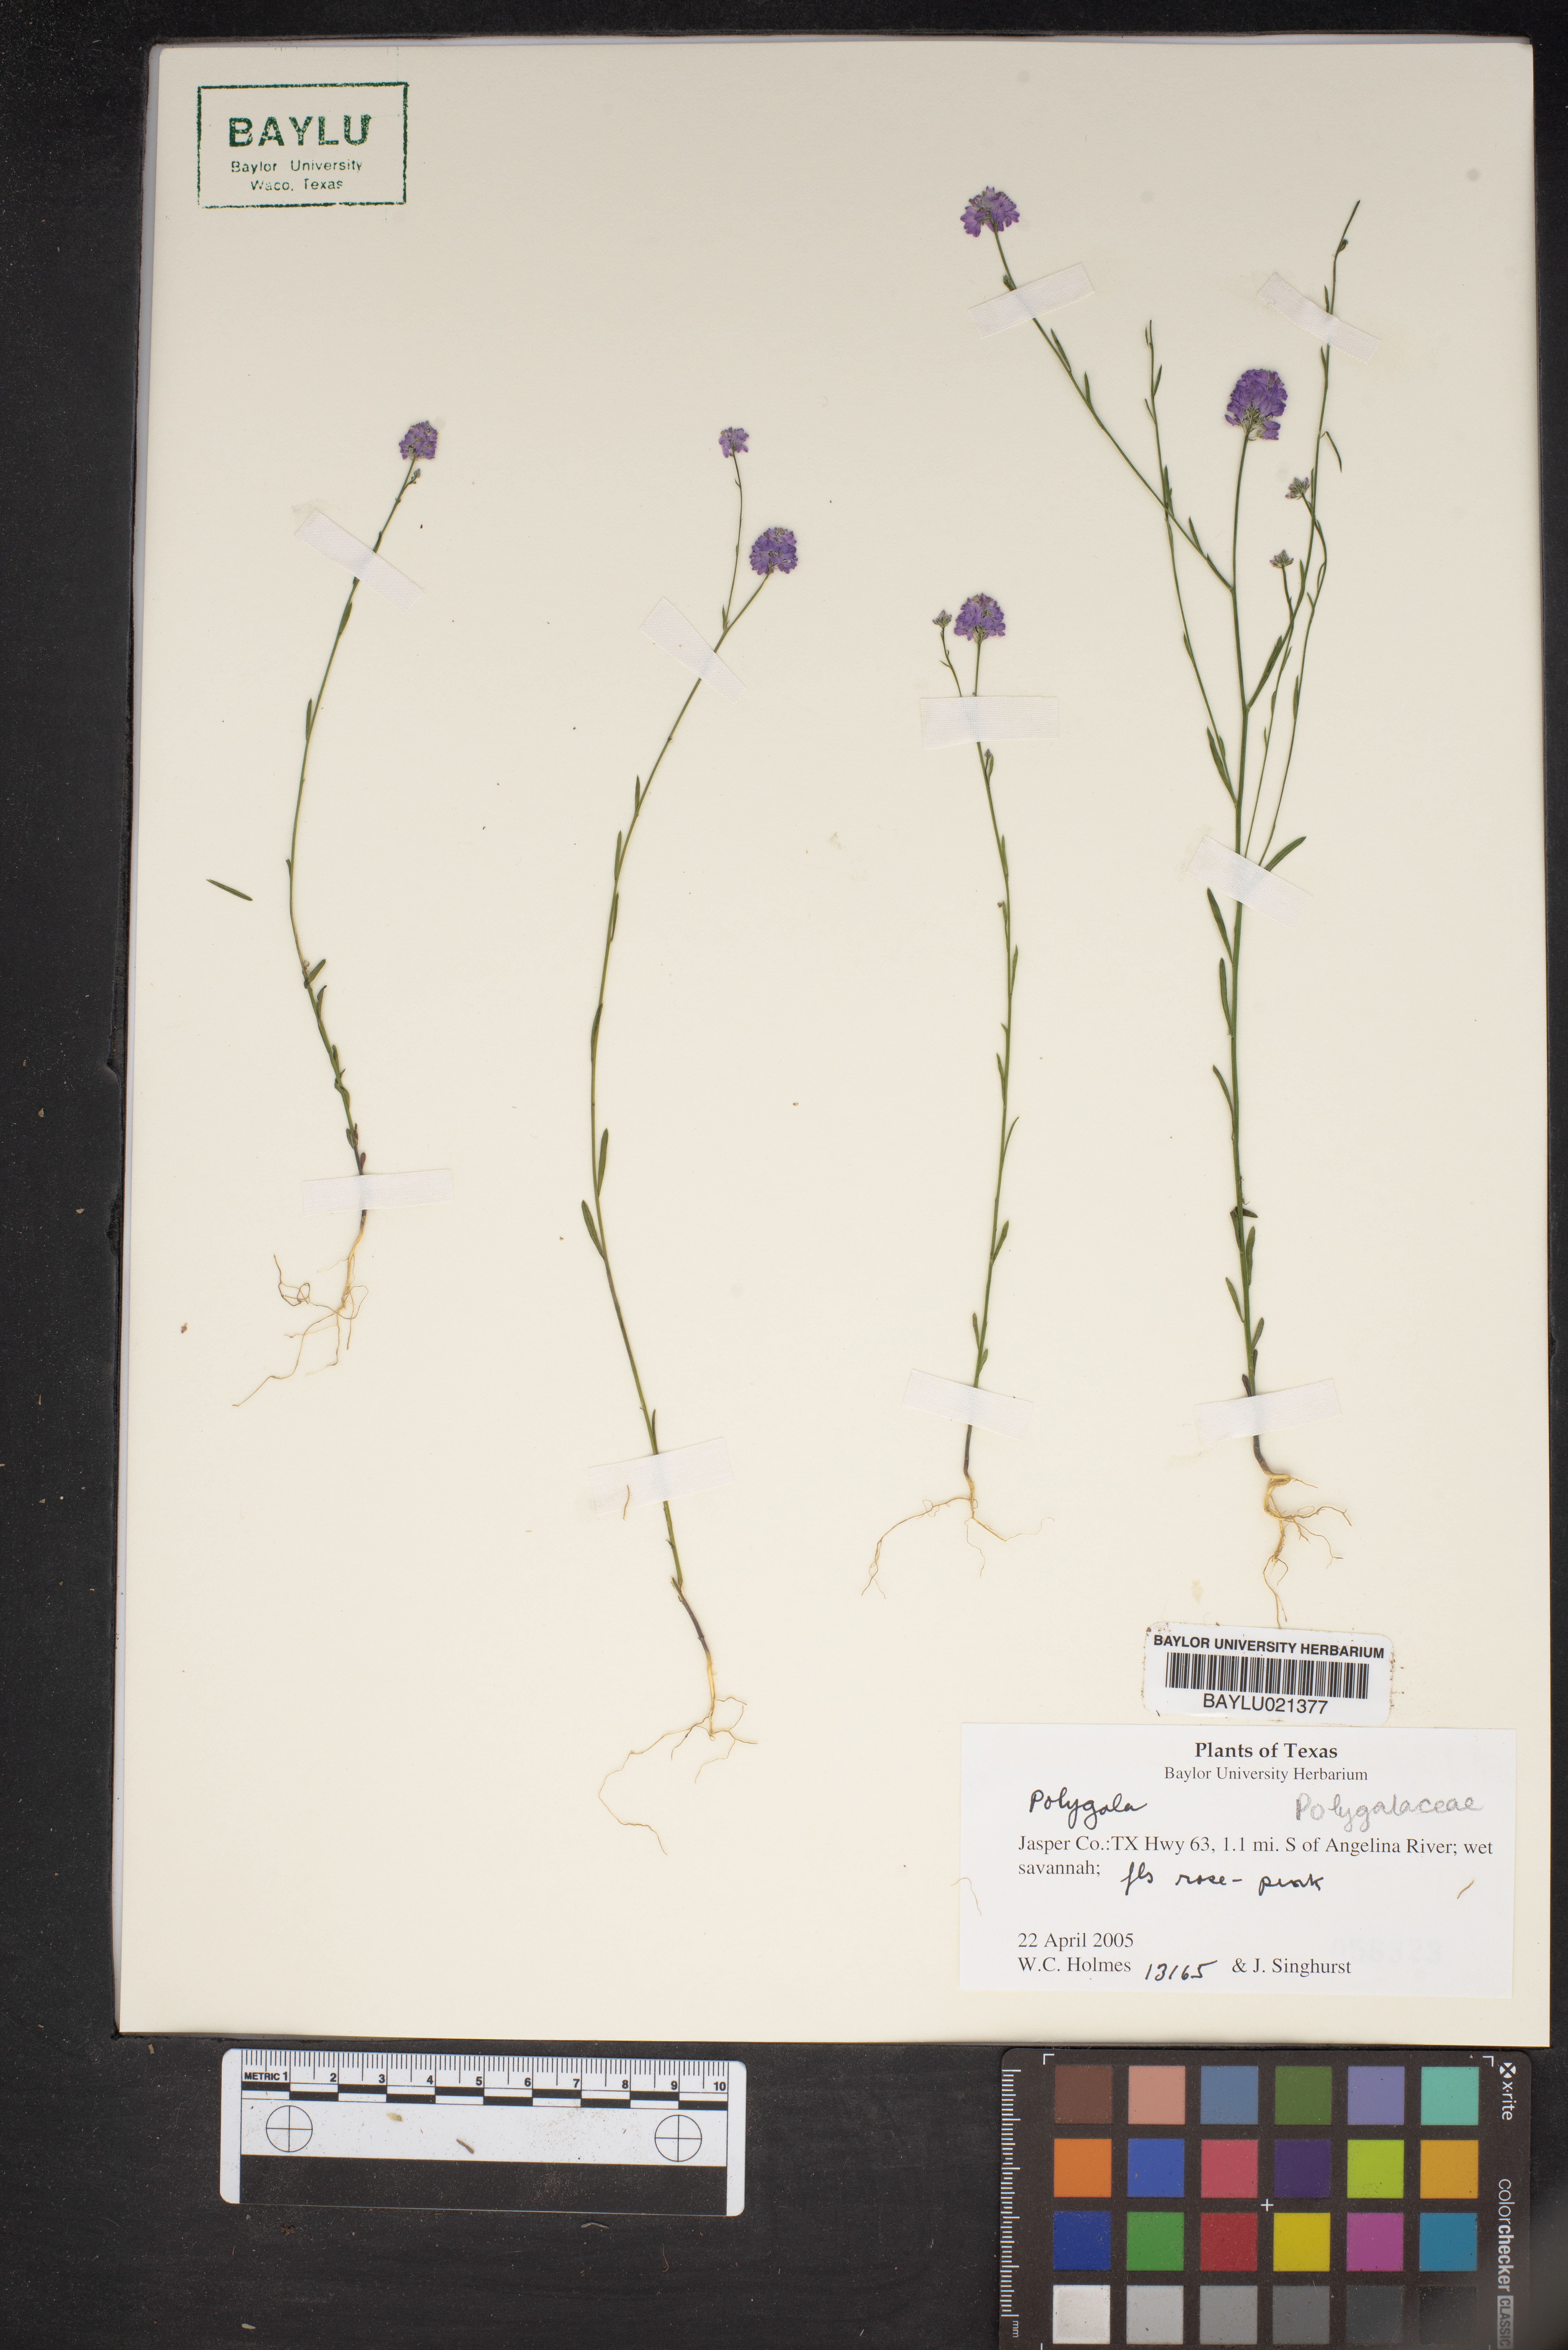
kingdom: Plantae
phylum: Tracheophyta
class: Magnoliopsida
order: Fabales
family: Polygalaceae
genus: Polygala
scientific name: Polygala
